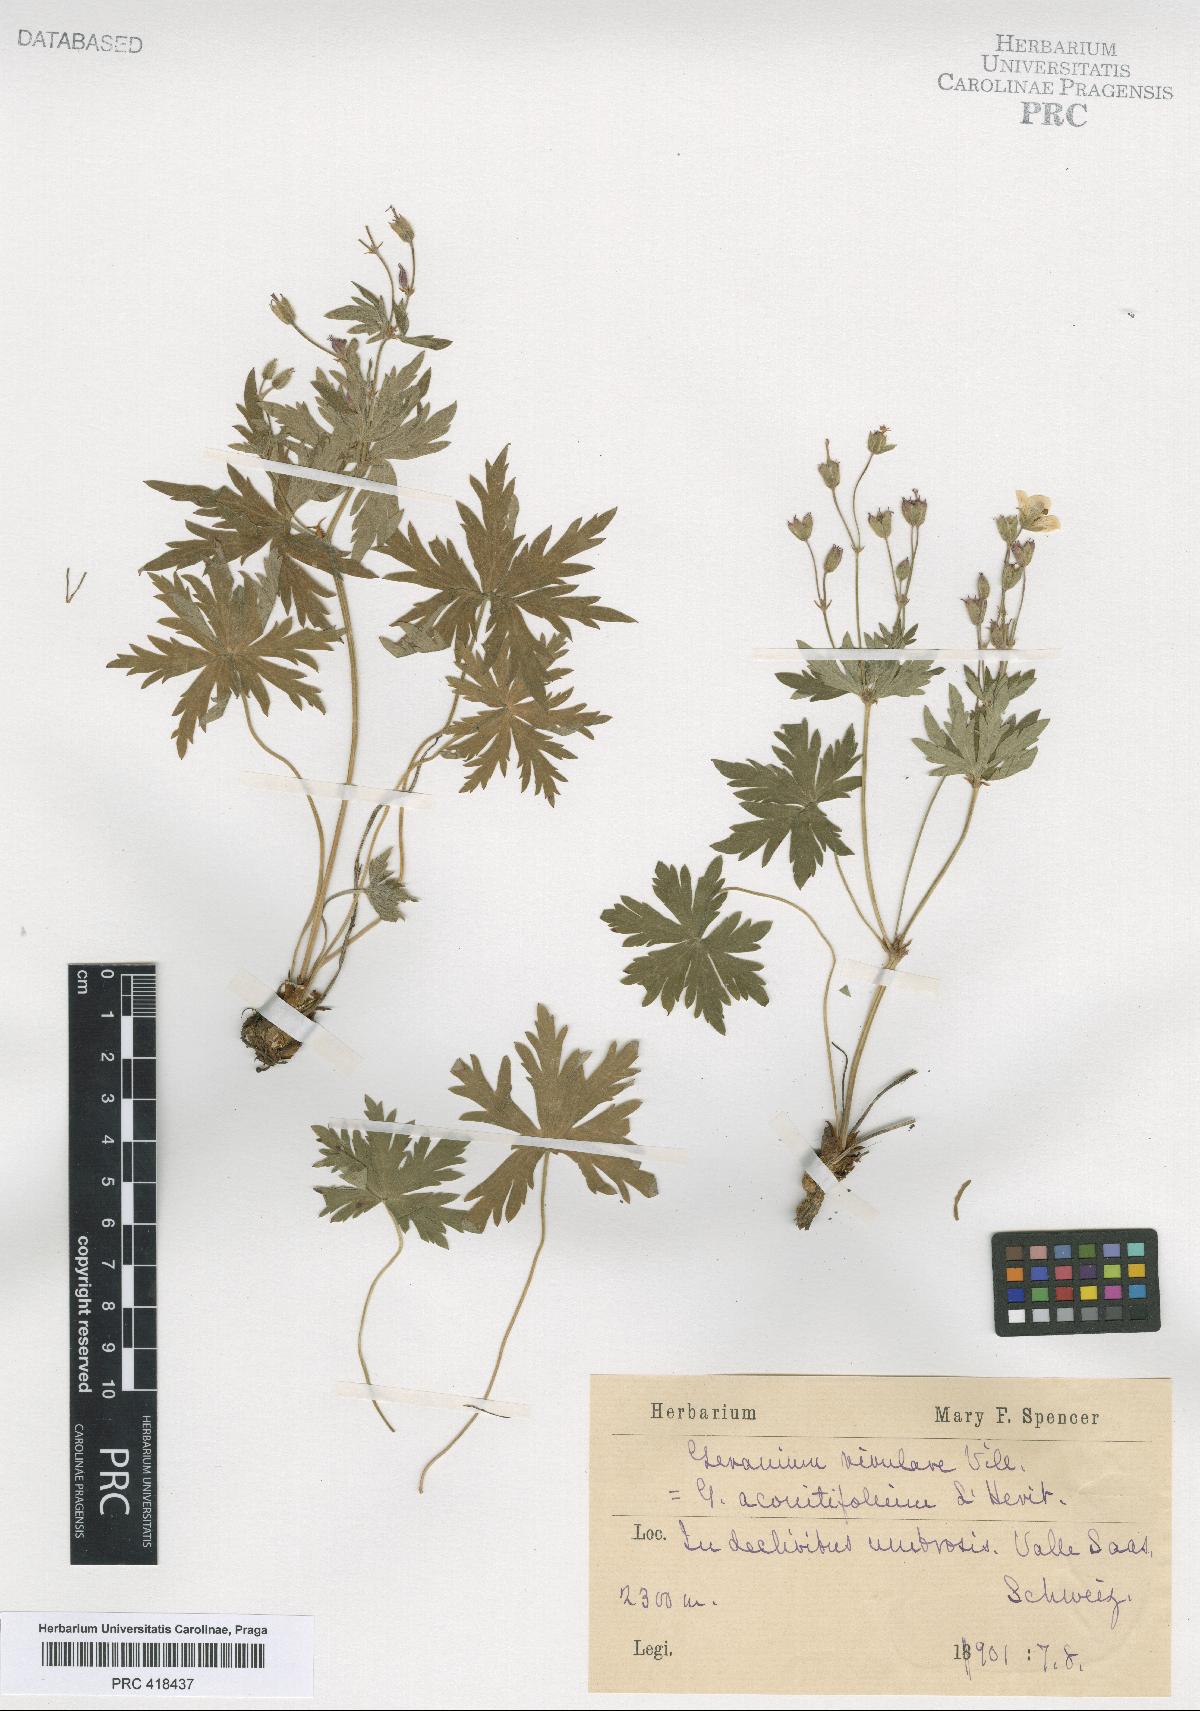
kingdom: Plantae
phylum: Tracheophyta
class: Magnoliopsida
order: Geraniales
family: Geraniaceae
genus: Geranium
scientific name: Geranium rivulare
